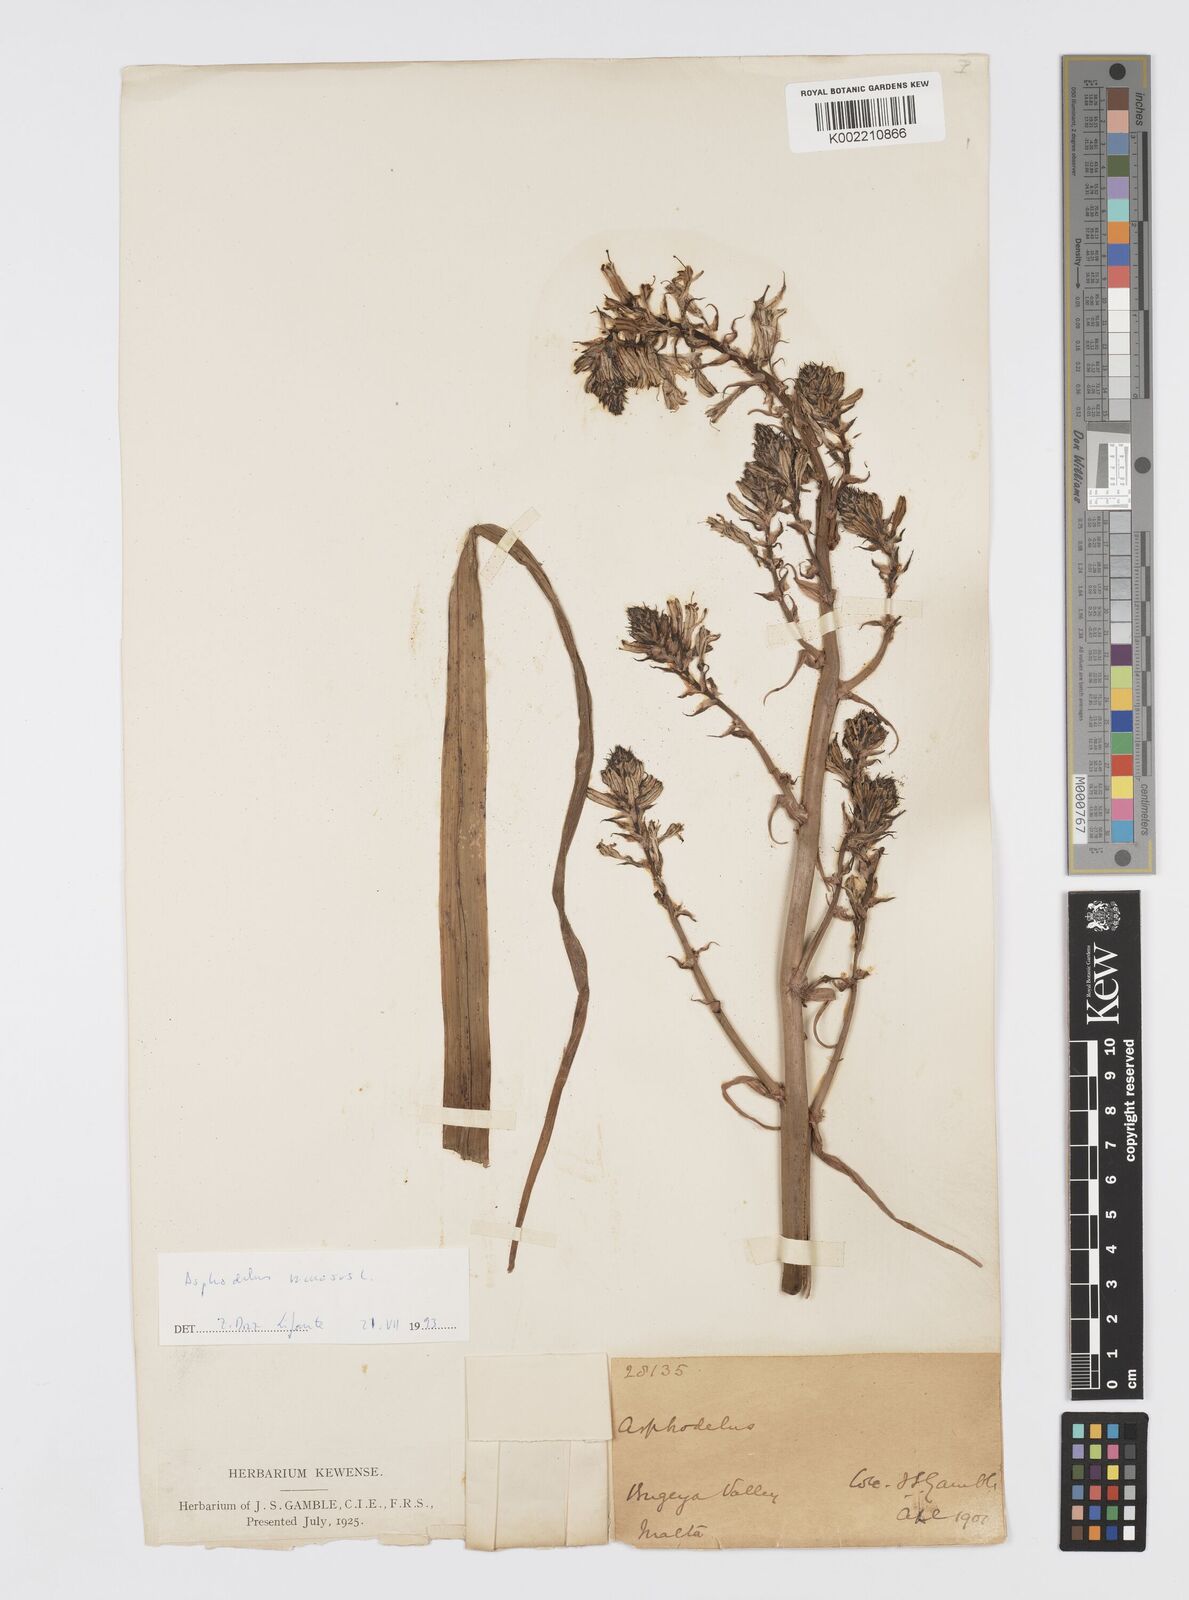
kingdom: Plantae
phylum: Tracheophyta
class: Liliopsida
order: Asparagales
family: Asphodelaceae
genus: Asphodelus
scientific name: Asphodelus albus
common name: White asphodel
